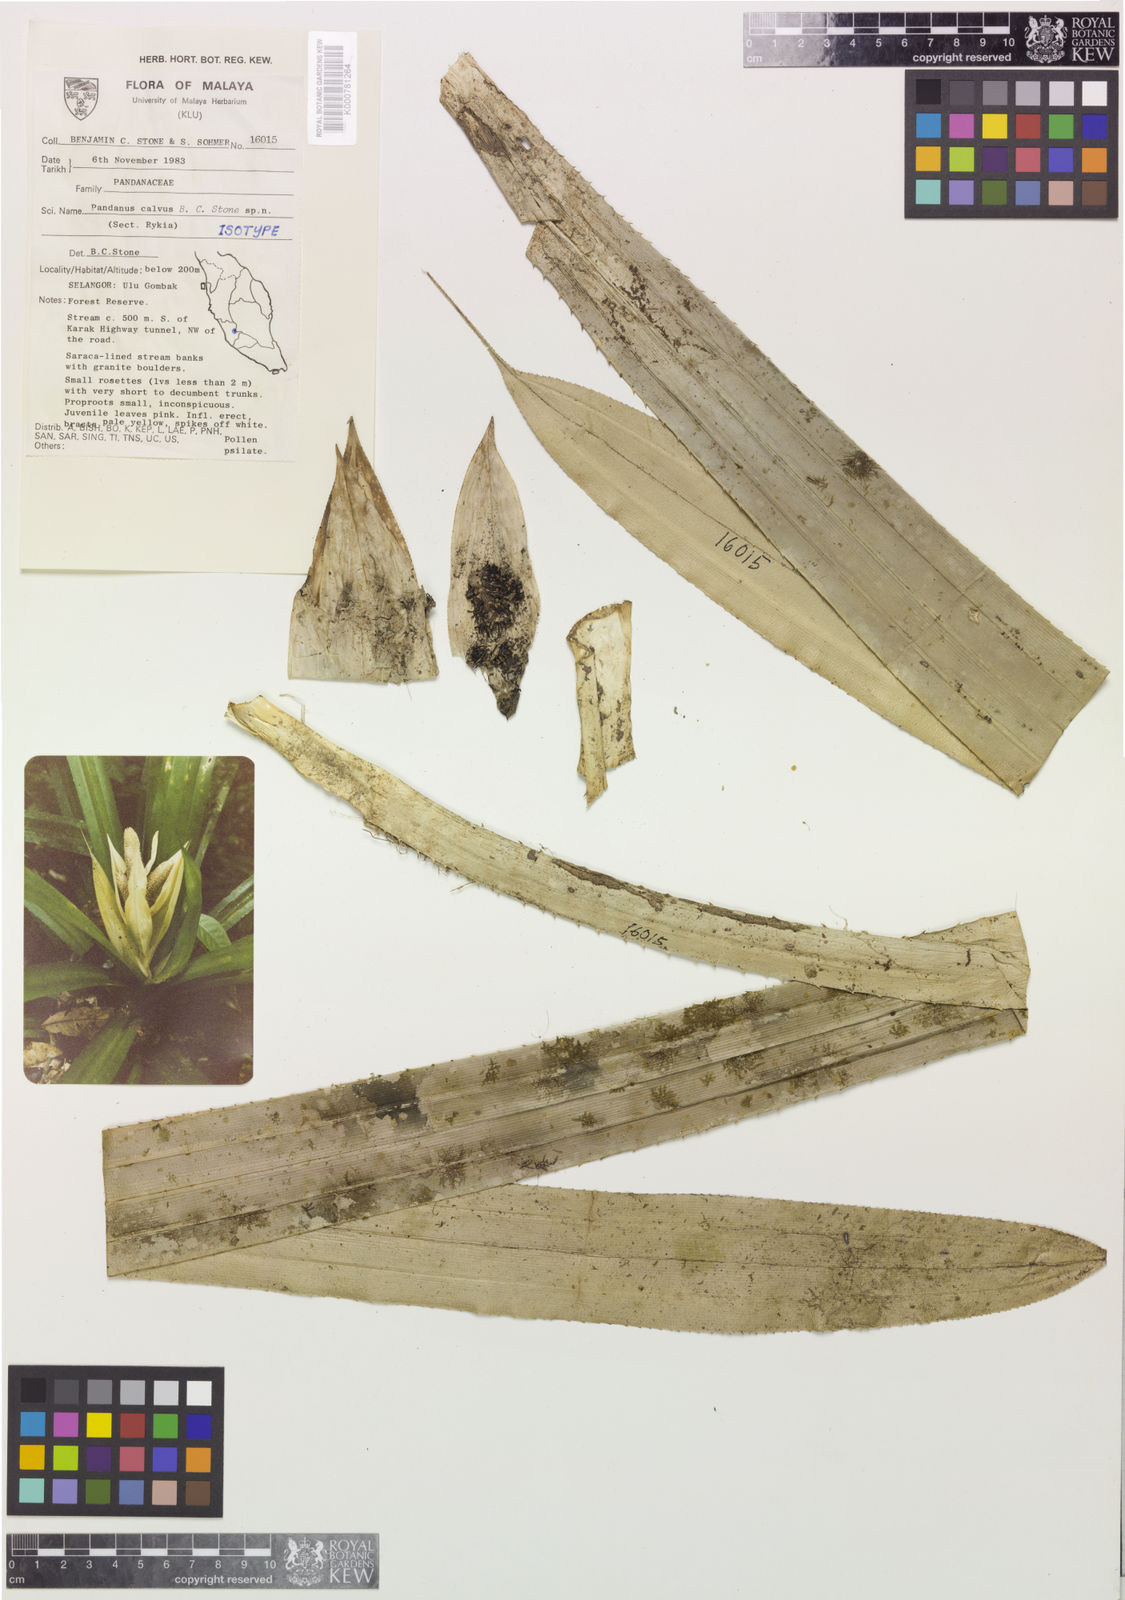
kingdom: Plantae
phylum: Tracheophyta
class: Liliopsida
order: Pandanales
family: Pandanaceae
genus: Pandanus
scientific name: Pandanus calvus
